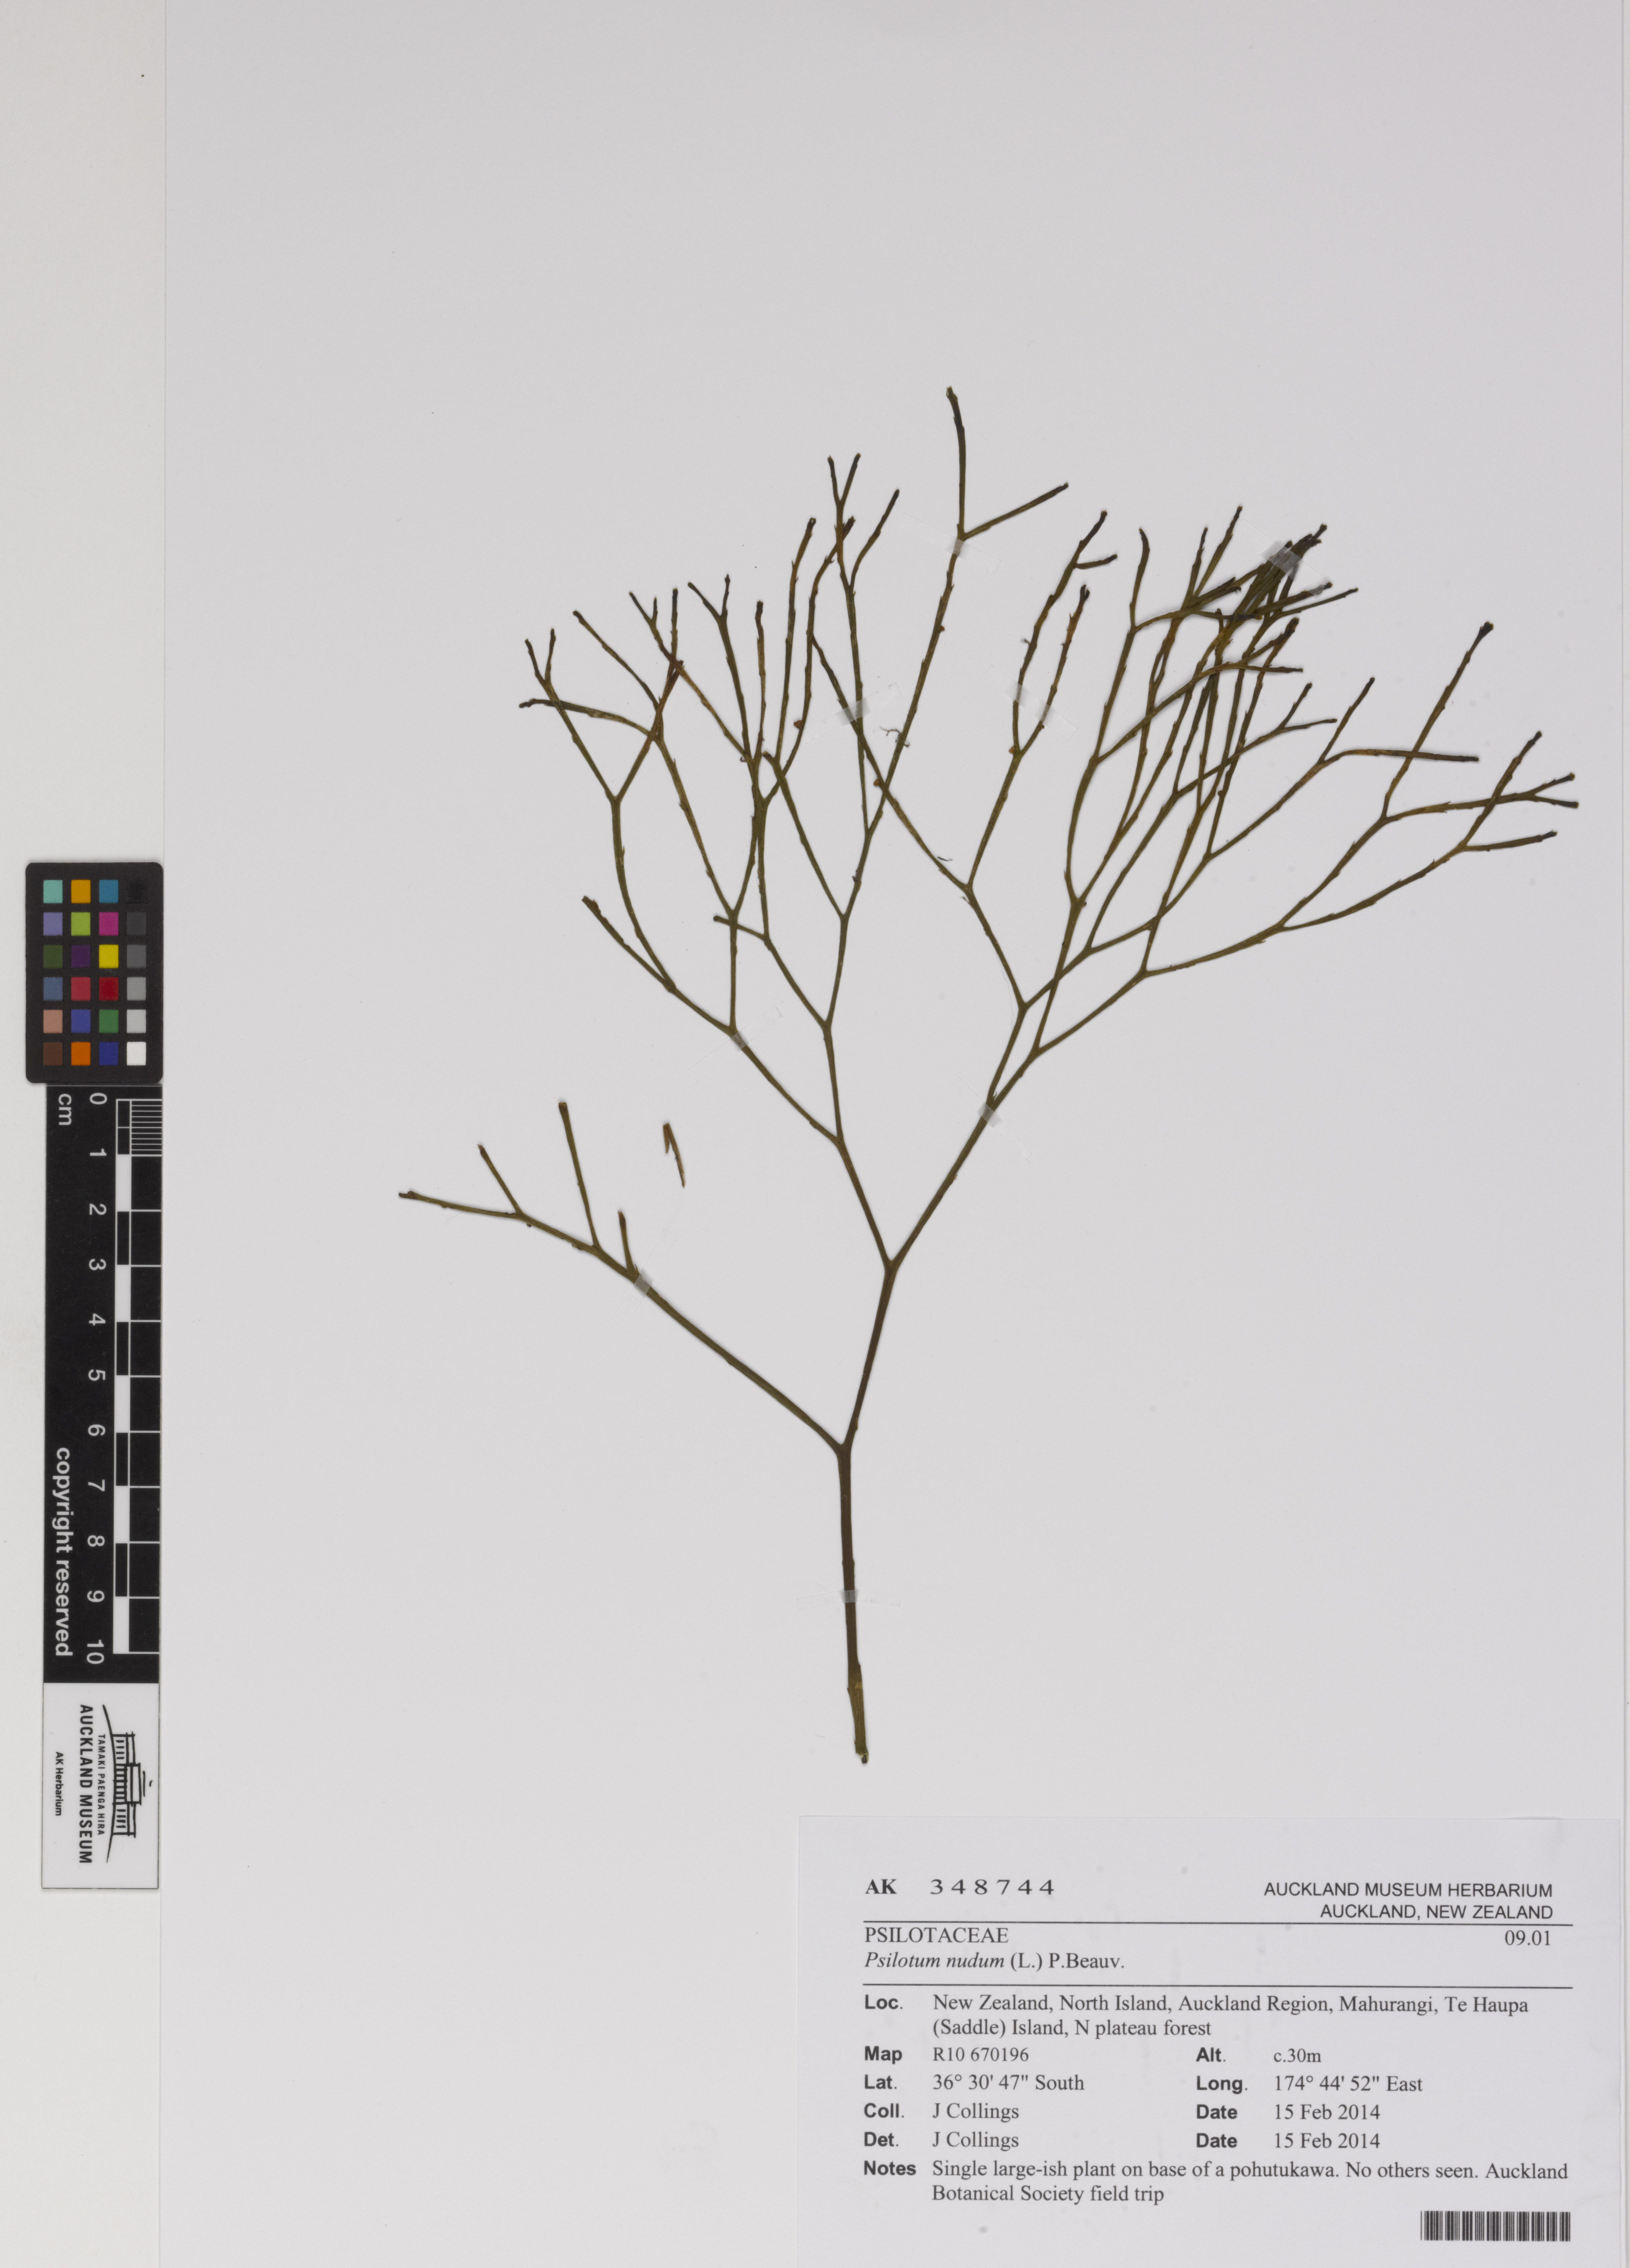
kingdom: Plantae
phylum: Tracheophyta
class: Polypodiopsida
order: Psilotales
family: Psilotaceae
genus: Psilotum
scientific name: Psilotum nudum
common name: Skeleton fork fern
